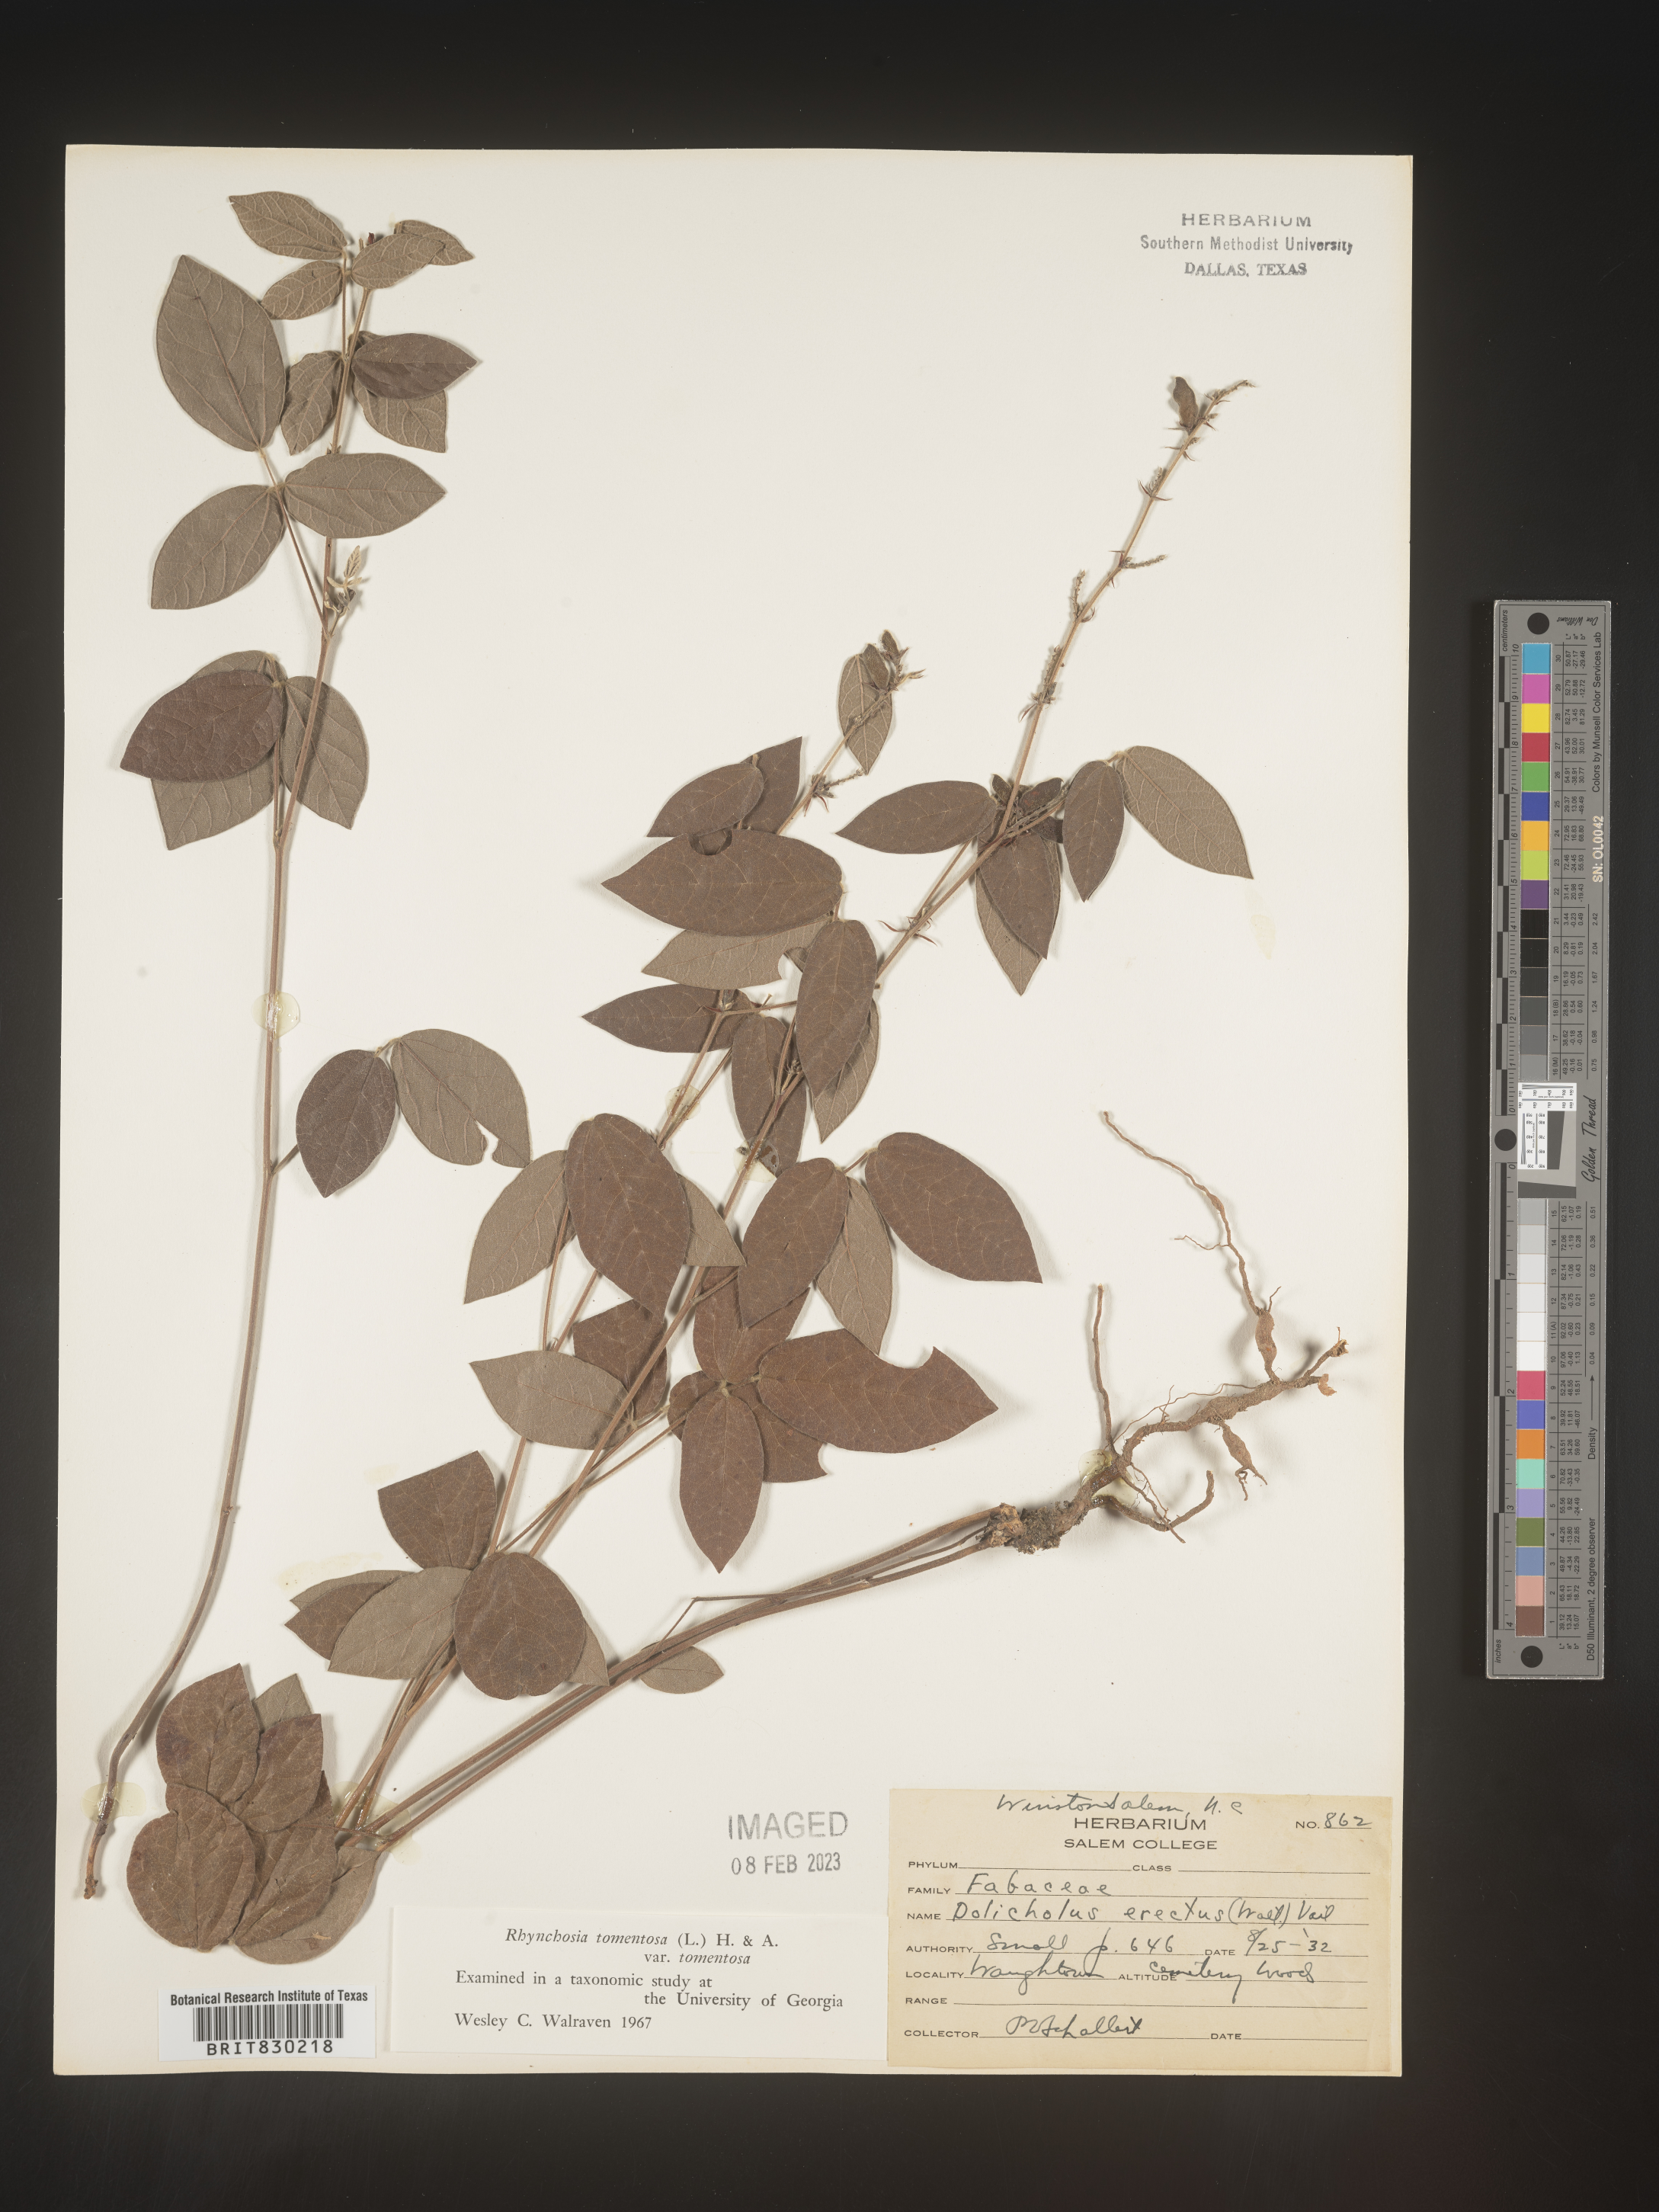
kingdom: Plantae
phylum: Tracheophyta
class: Magnoliopsida
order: Fabales
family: Fabaceae
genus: Rhynchosia
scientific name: Rhynchosia rothii
